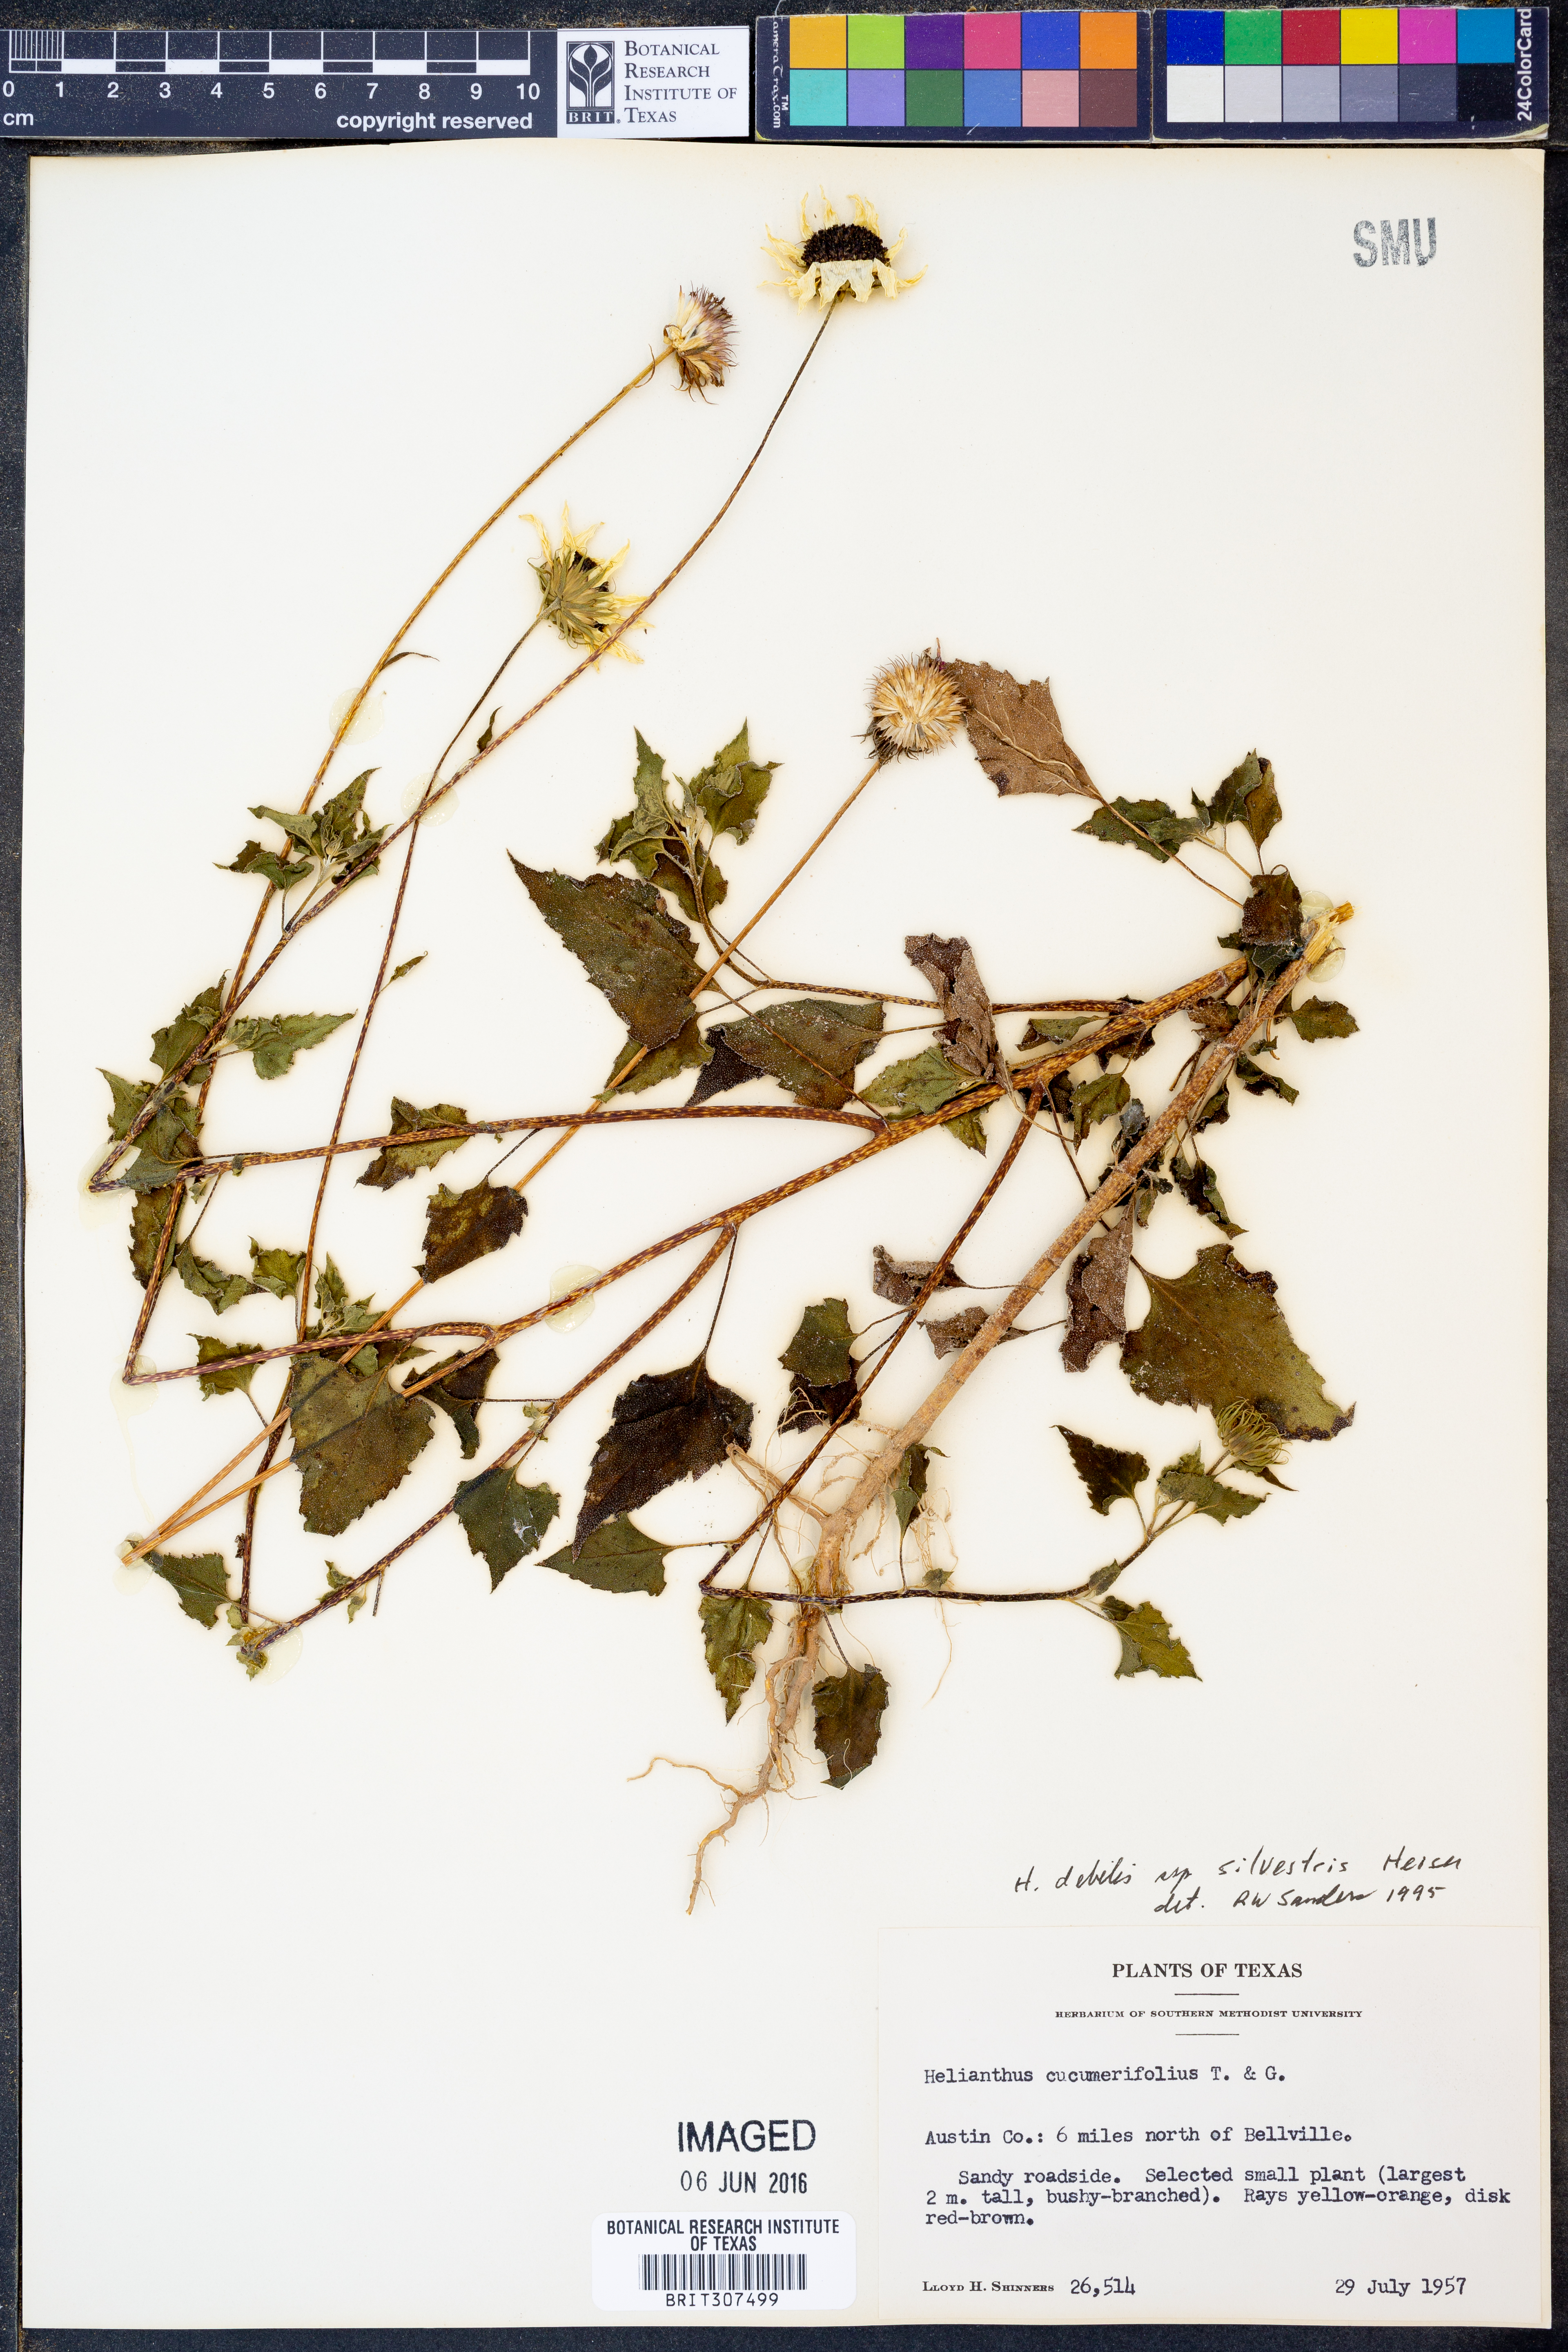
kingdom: Plantae
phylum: Tracheophyta
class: Magnoliopsida
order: Asterales
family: Asteraceae
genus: Helianthus
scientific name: Helianthus debilis
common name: Weak sunflower
